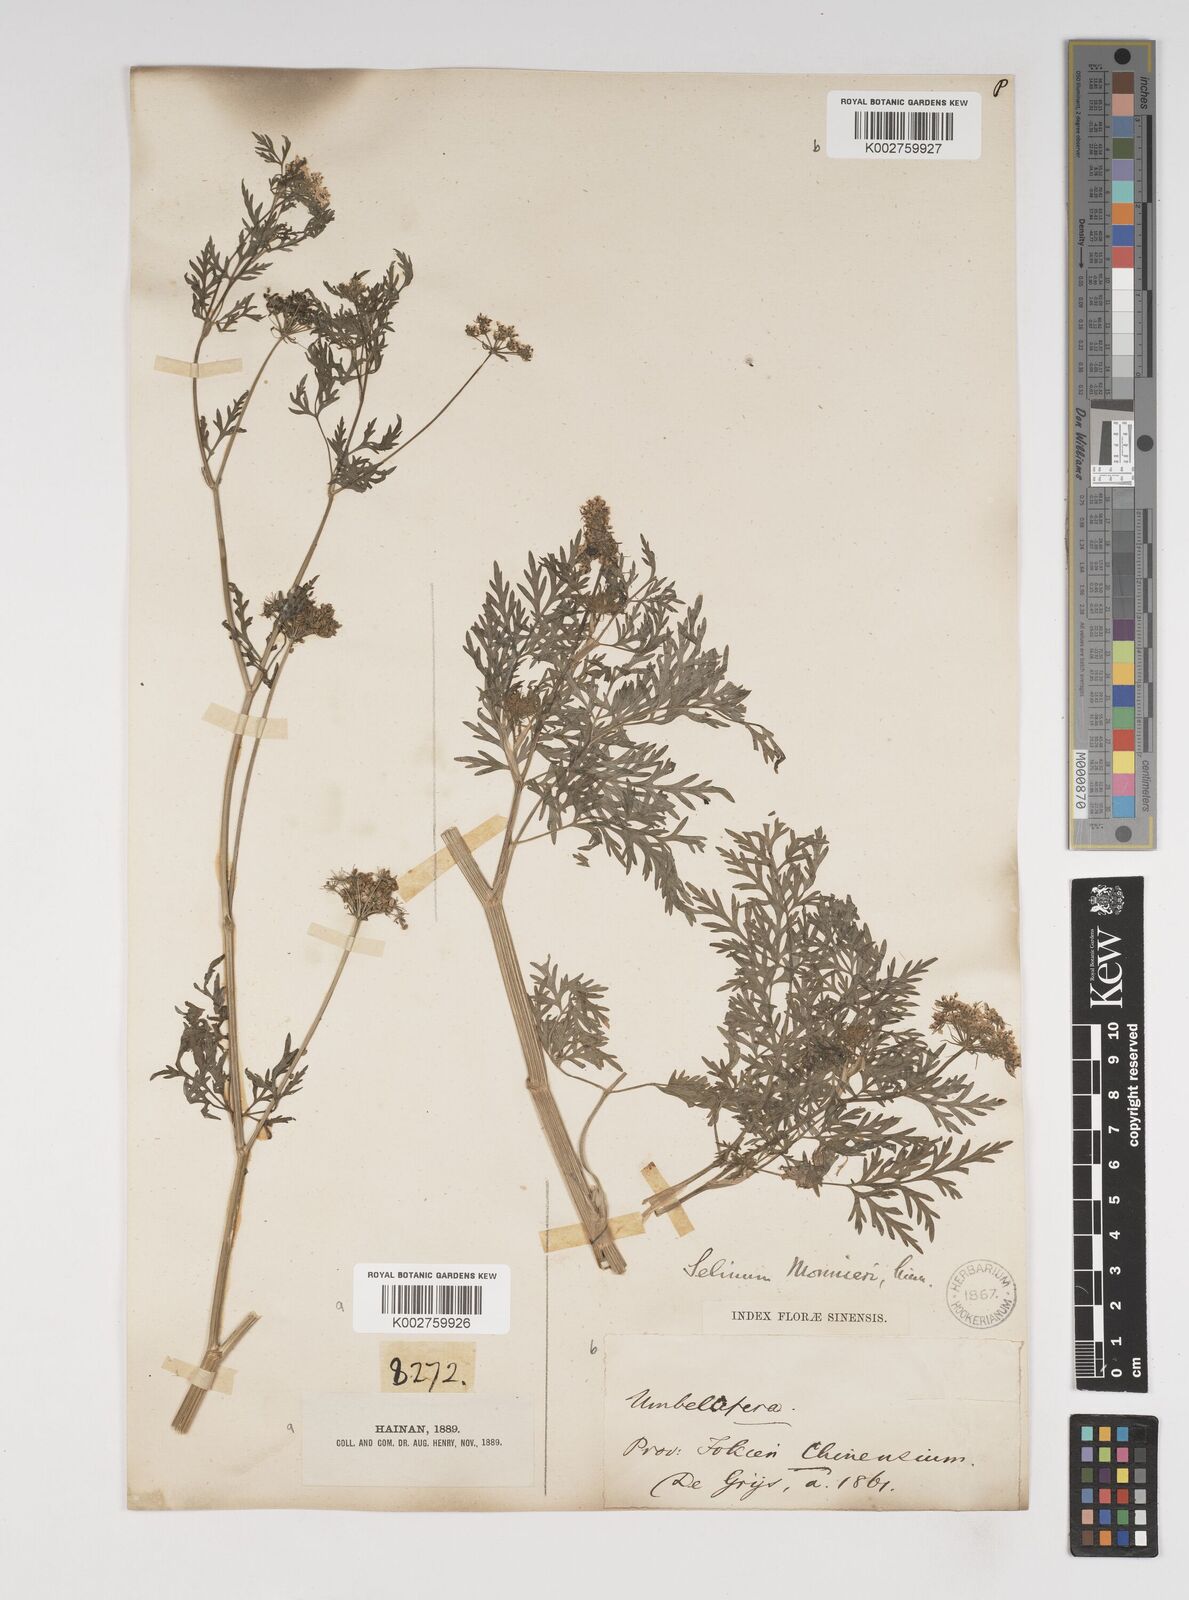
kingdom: Plantae
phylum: Tracheophyta
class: Magnoliopsida
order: Apiales
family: Apiaceae
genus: Cnidium
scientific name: Cnidium monnieri
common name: Monnier's snowparsley
